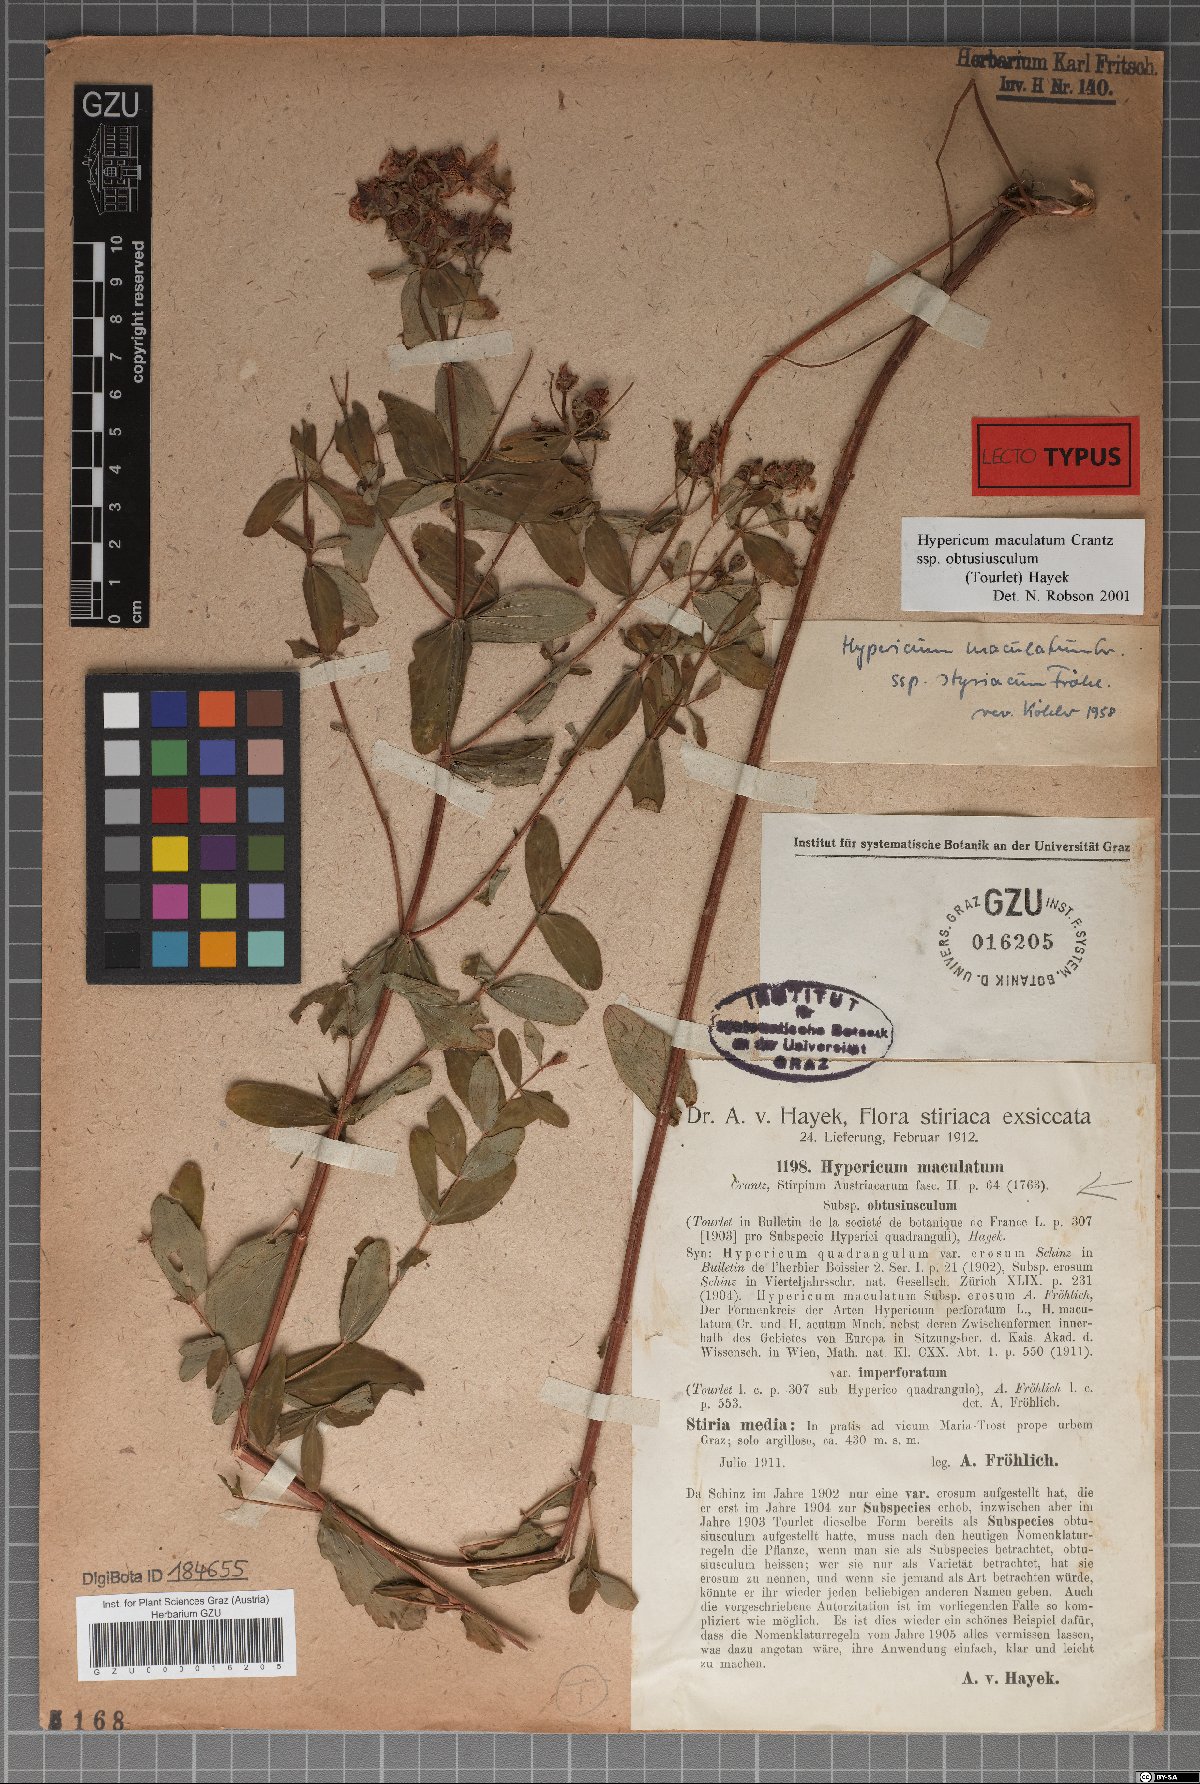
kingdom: Plantae
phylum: Tracheophyta
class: Magnoliopsida
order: Malpighiales
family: Hypericaceae
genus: Hypericum
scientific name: Hypericum dubium
